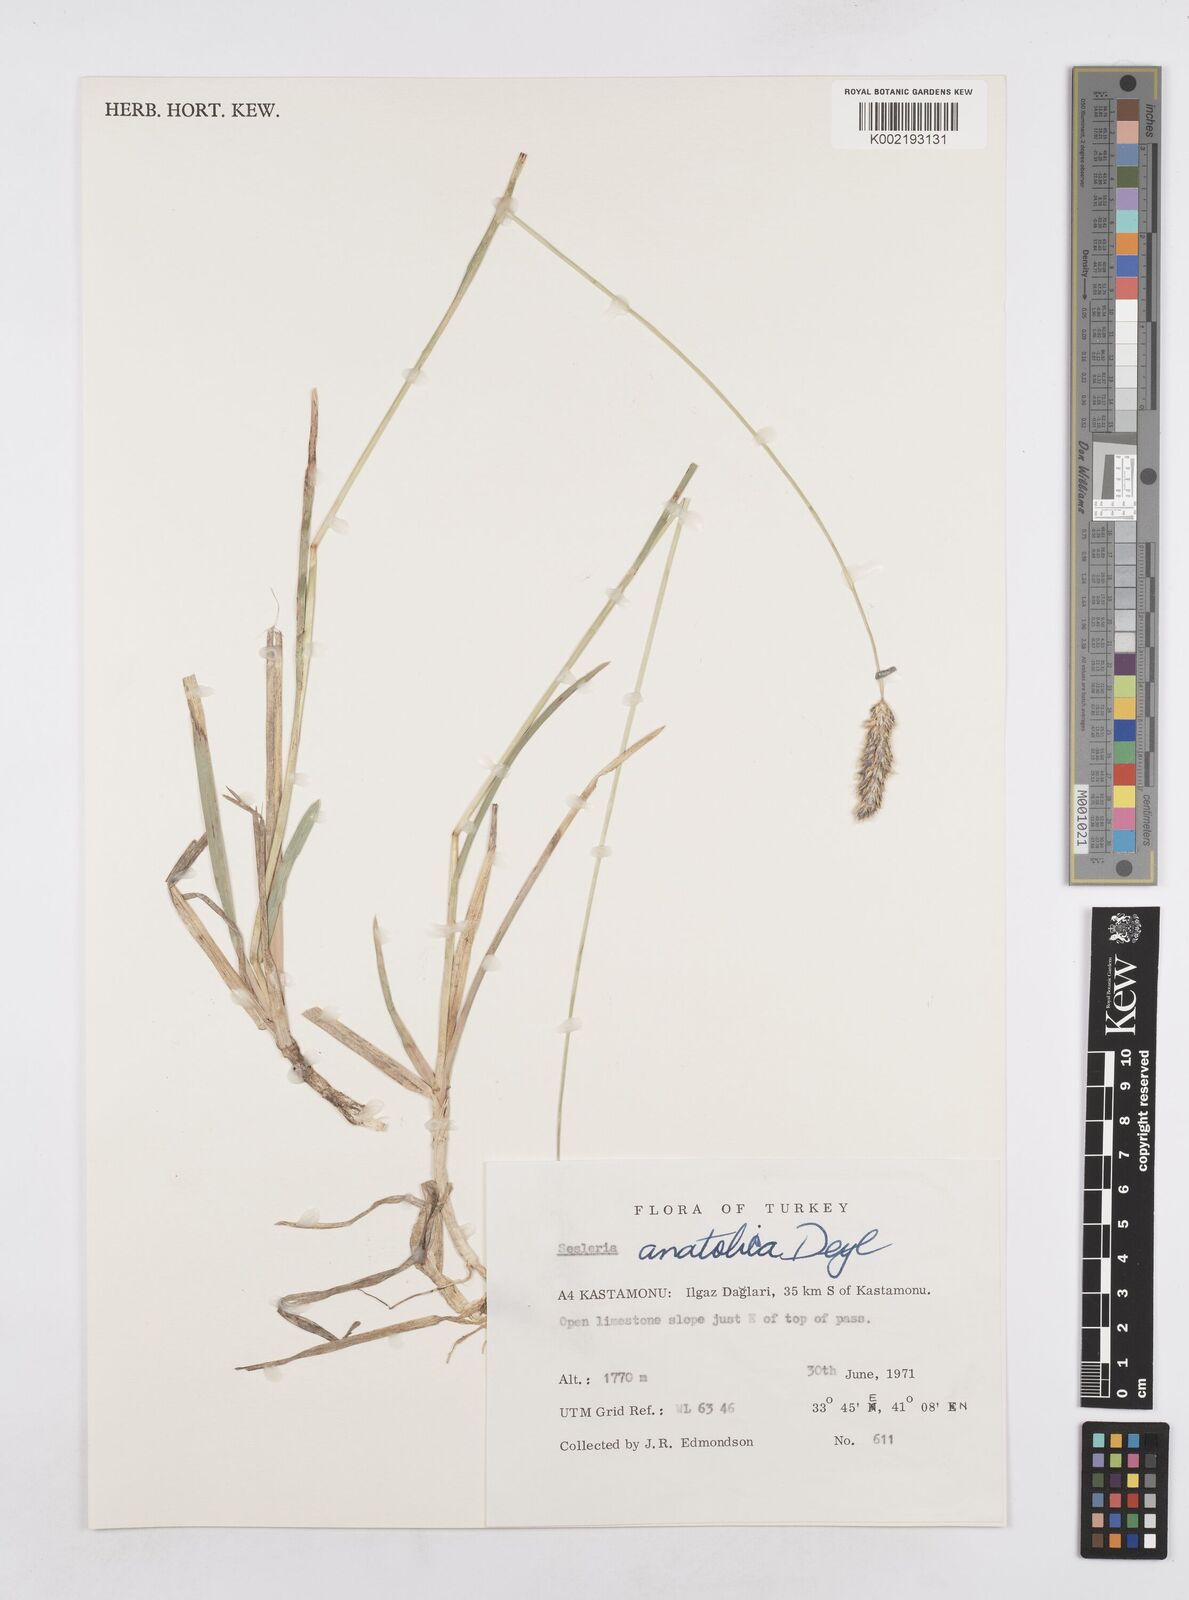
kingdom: Plantae
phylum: Tracheophyta
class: Liliopsida
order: Poales
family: Poaceae
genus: Sesleria
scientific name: Sesleria alba
